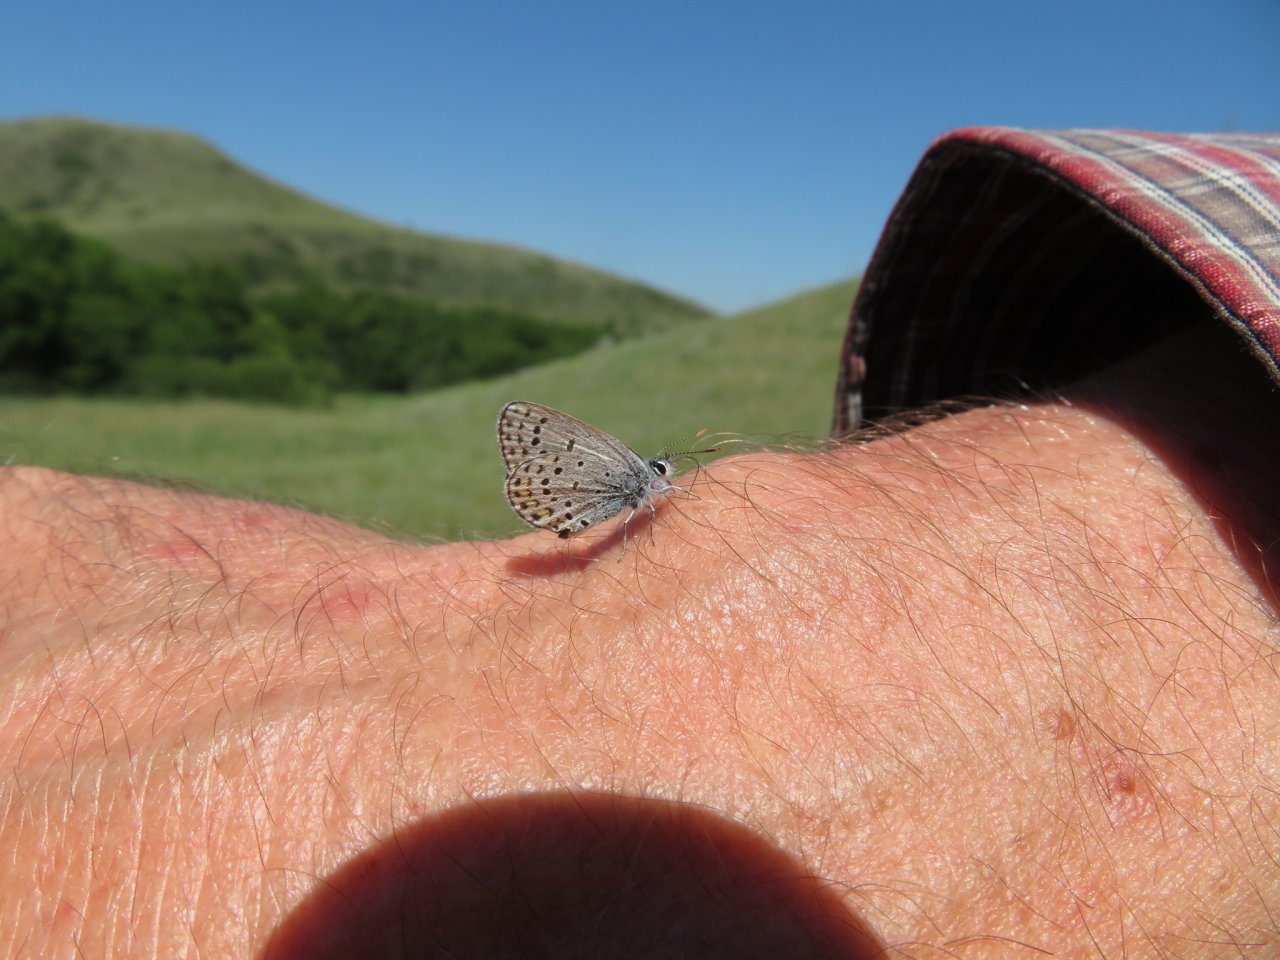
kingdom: Animalia
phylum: Arthropoda
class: Insecta
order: Lepidoptera
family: Lycaenidae
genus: Lycaeides
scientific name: Lycaeides idas
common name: Northern Blue
